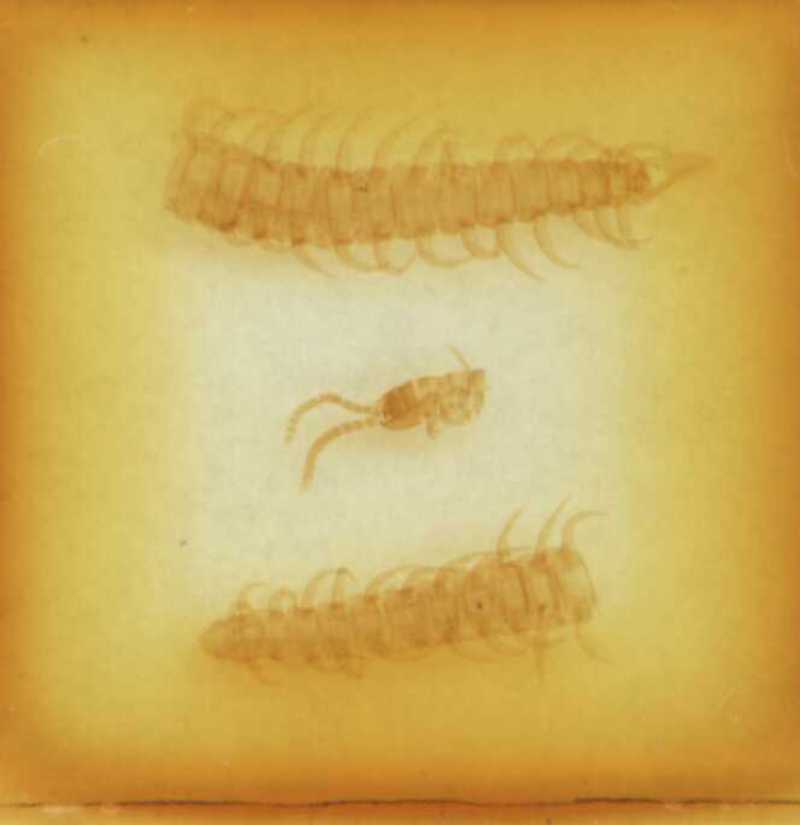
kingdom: Animalia
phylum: Arthropoda
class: Chilopoda
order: Geophilomorpha
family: Linotaeniidae
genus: Strigamia
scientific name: Strigamia crassipes
